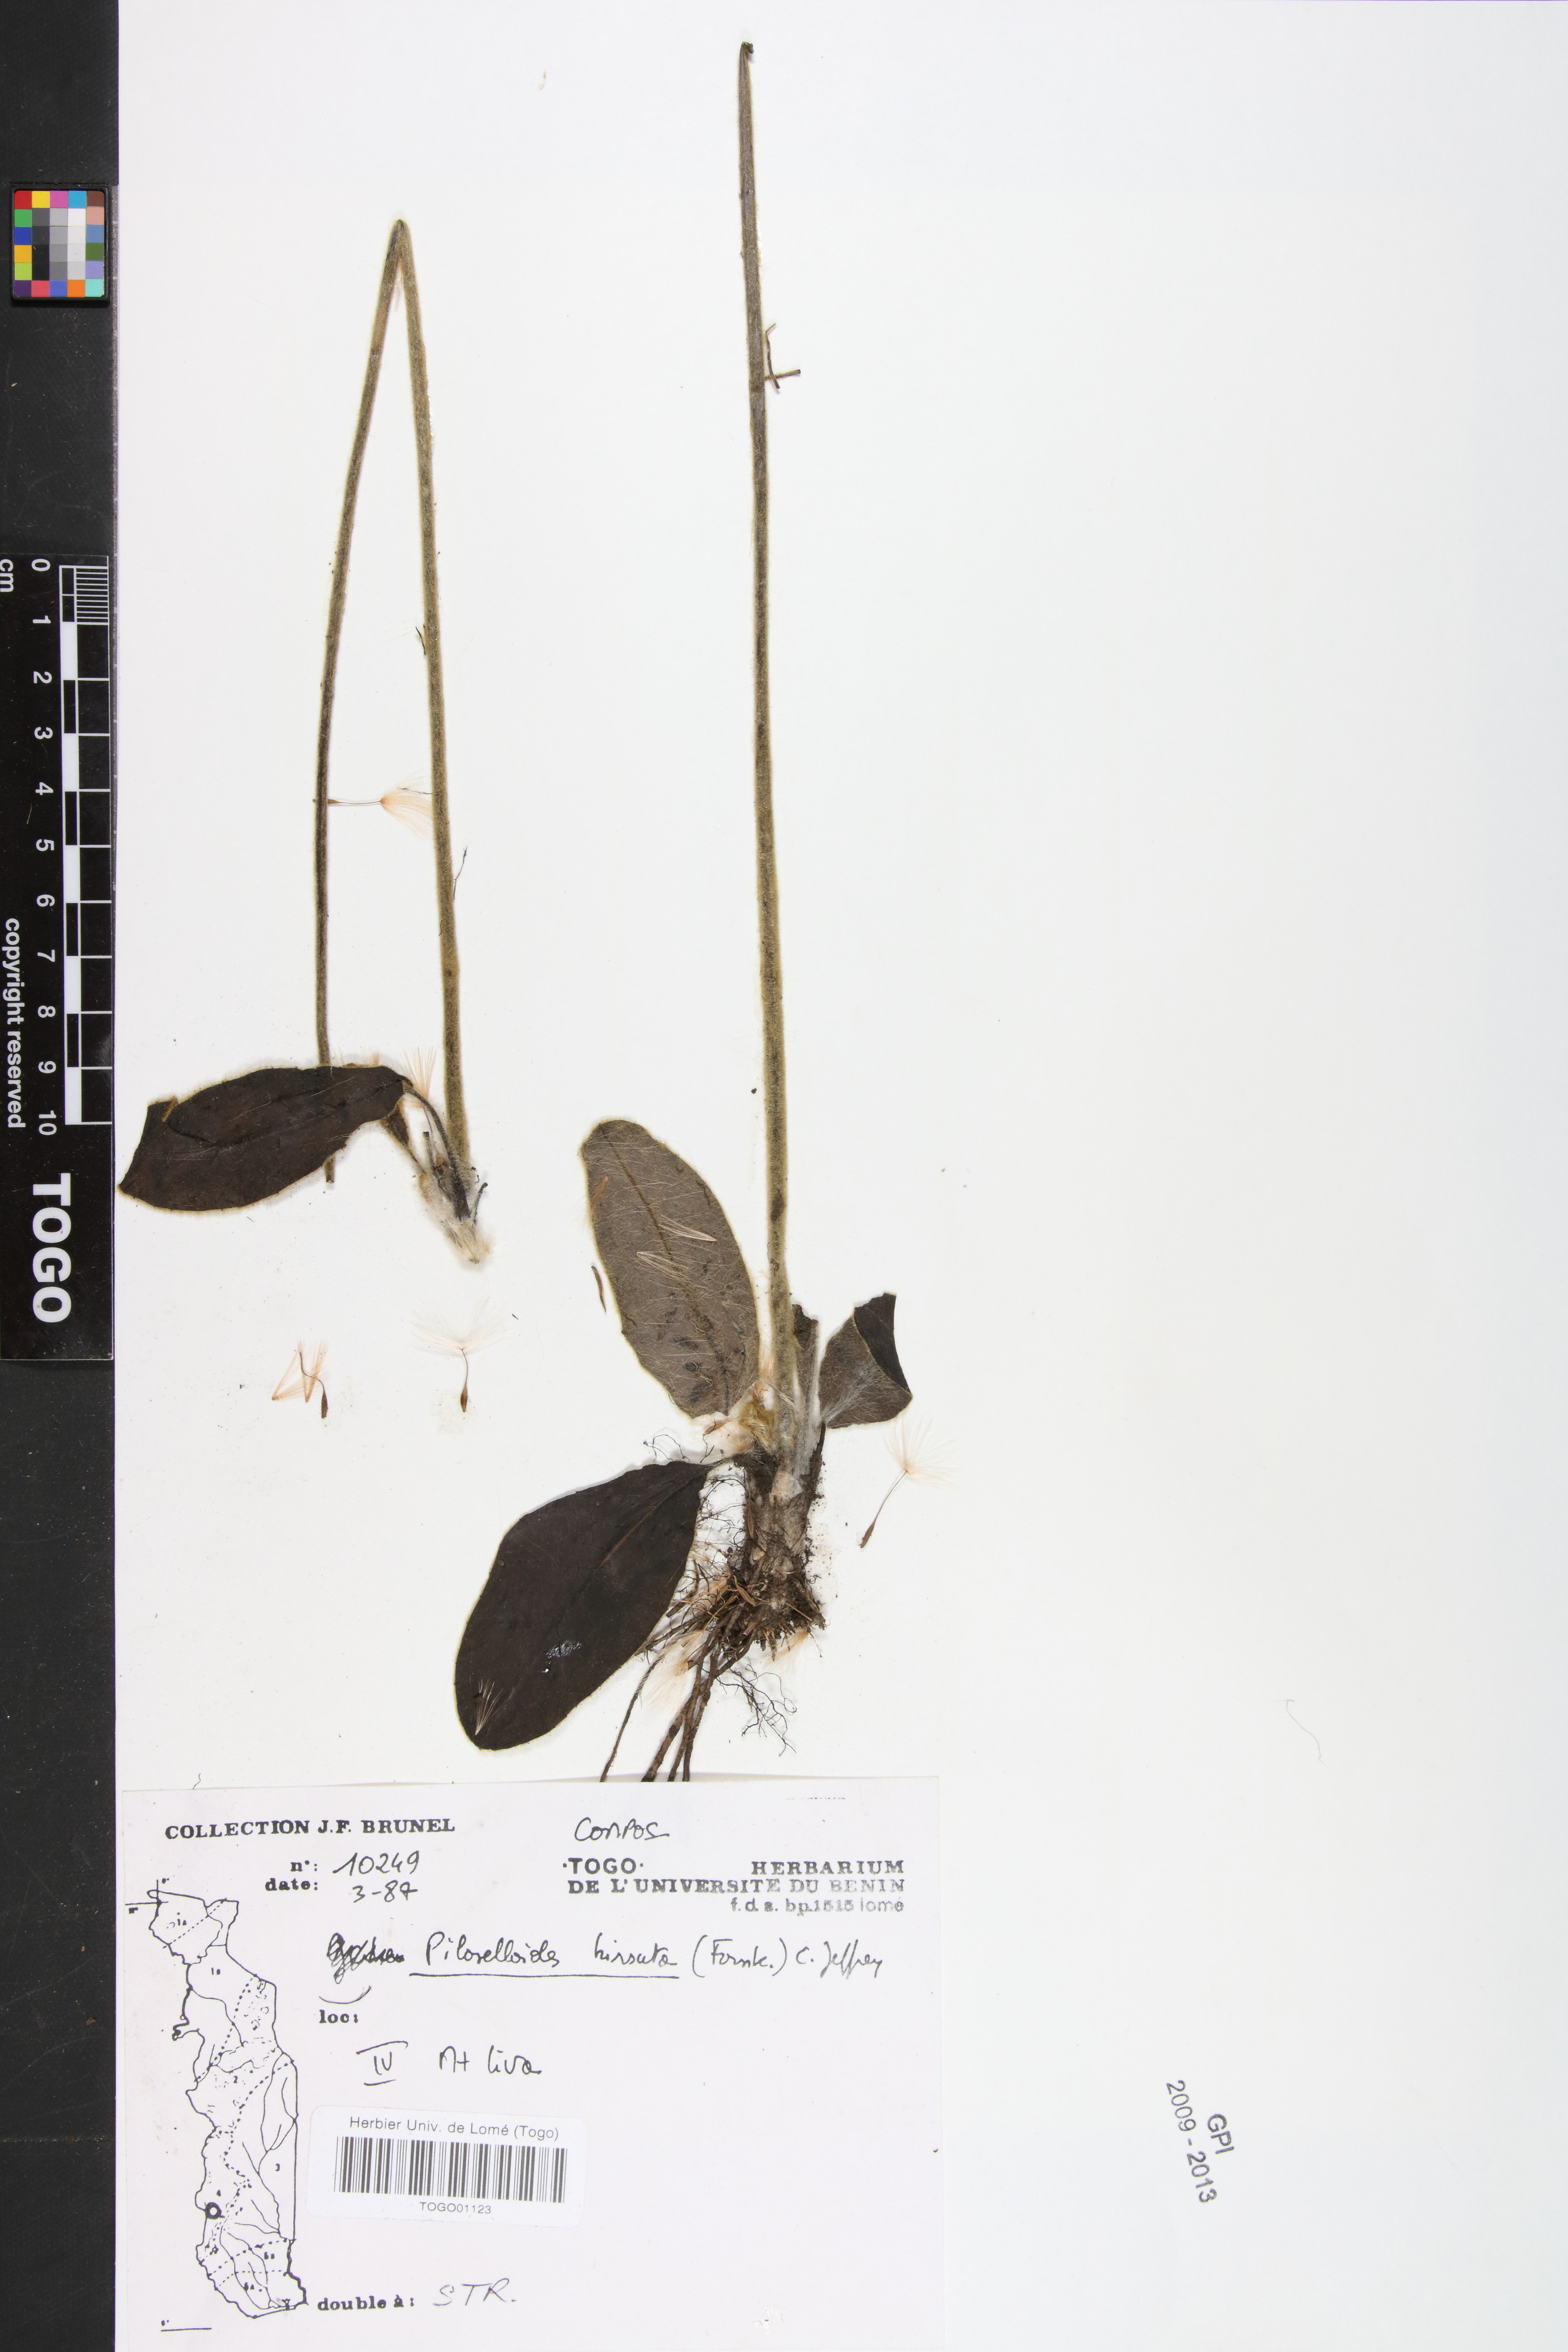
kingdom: Plantae
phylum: Tracheophyta
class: Magnoliopsida
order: Asterales
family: Asteraceae
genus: Piloselloides
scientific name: Piloselloides hirsuta
